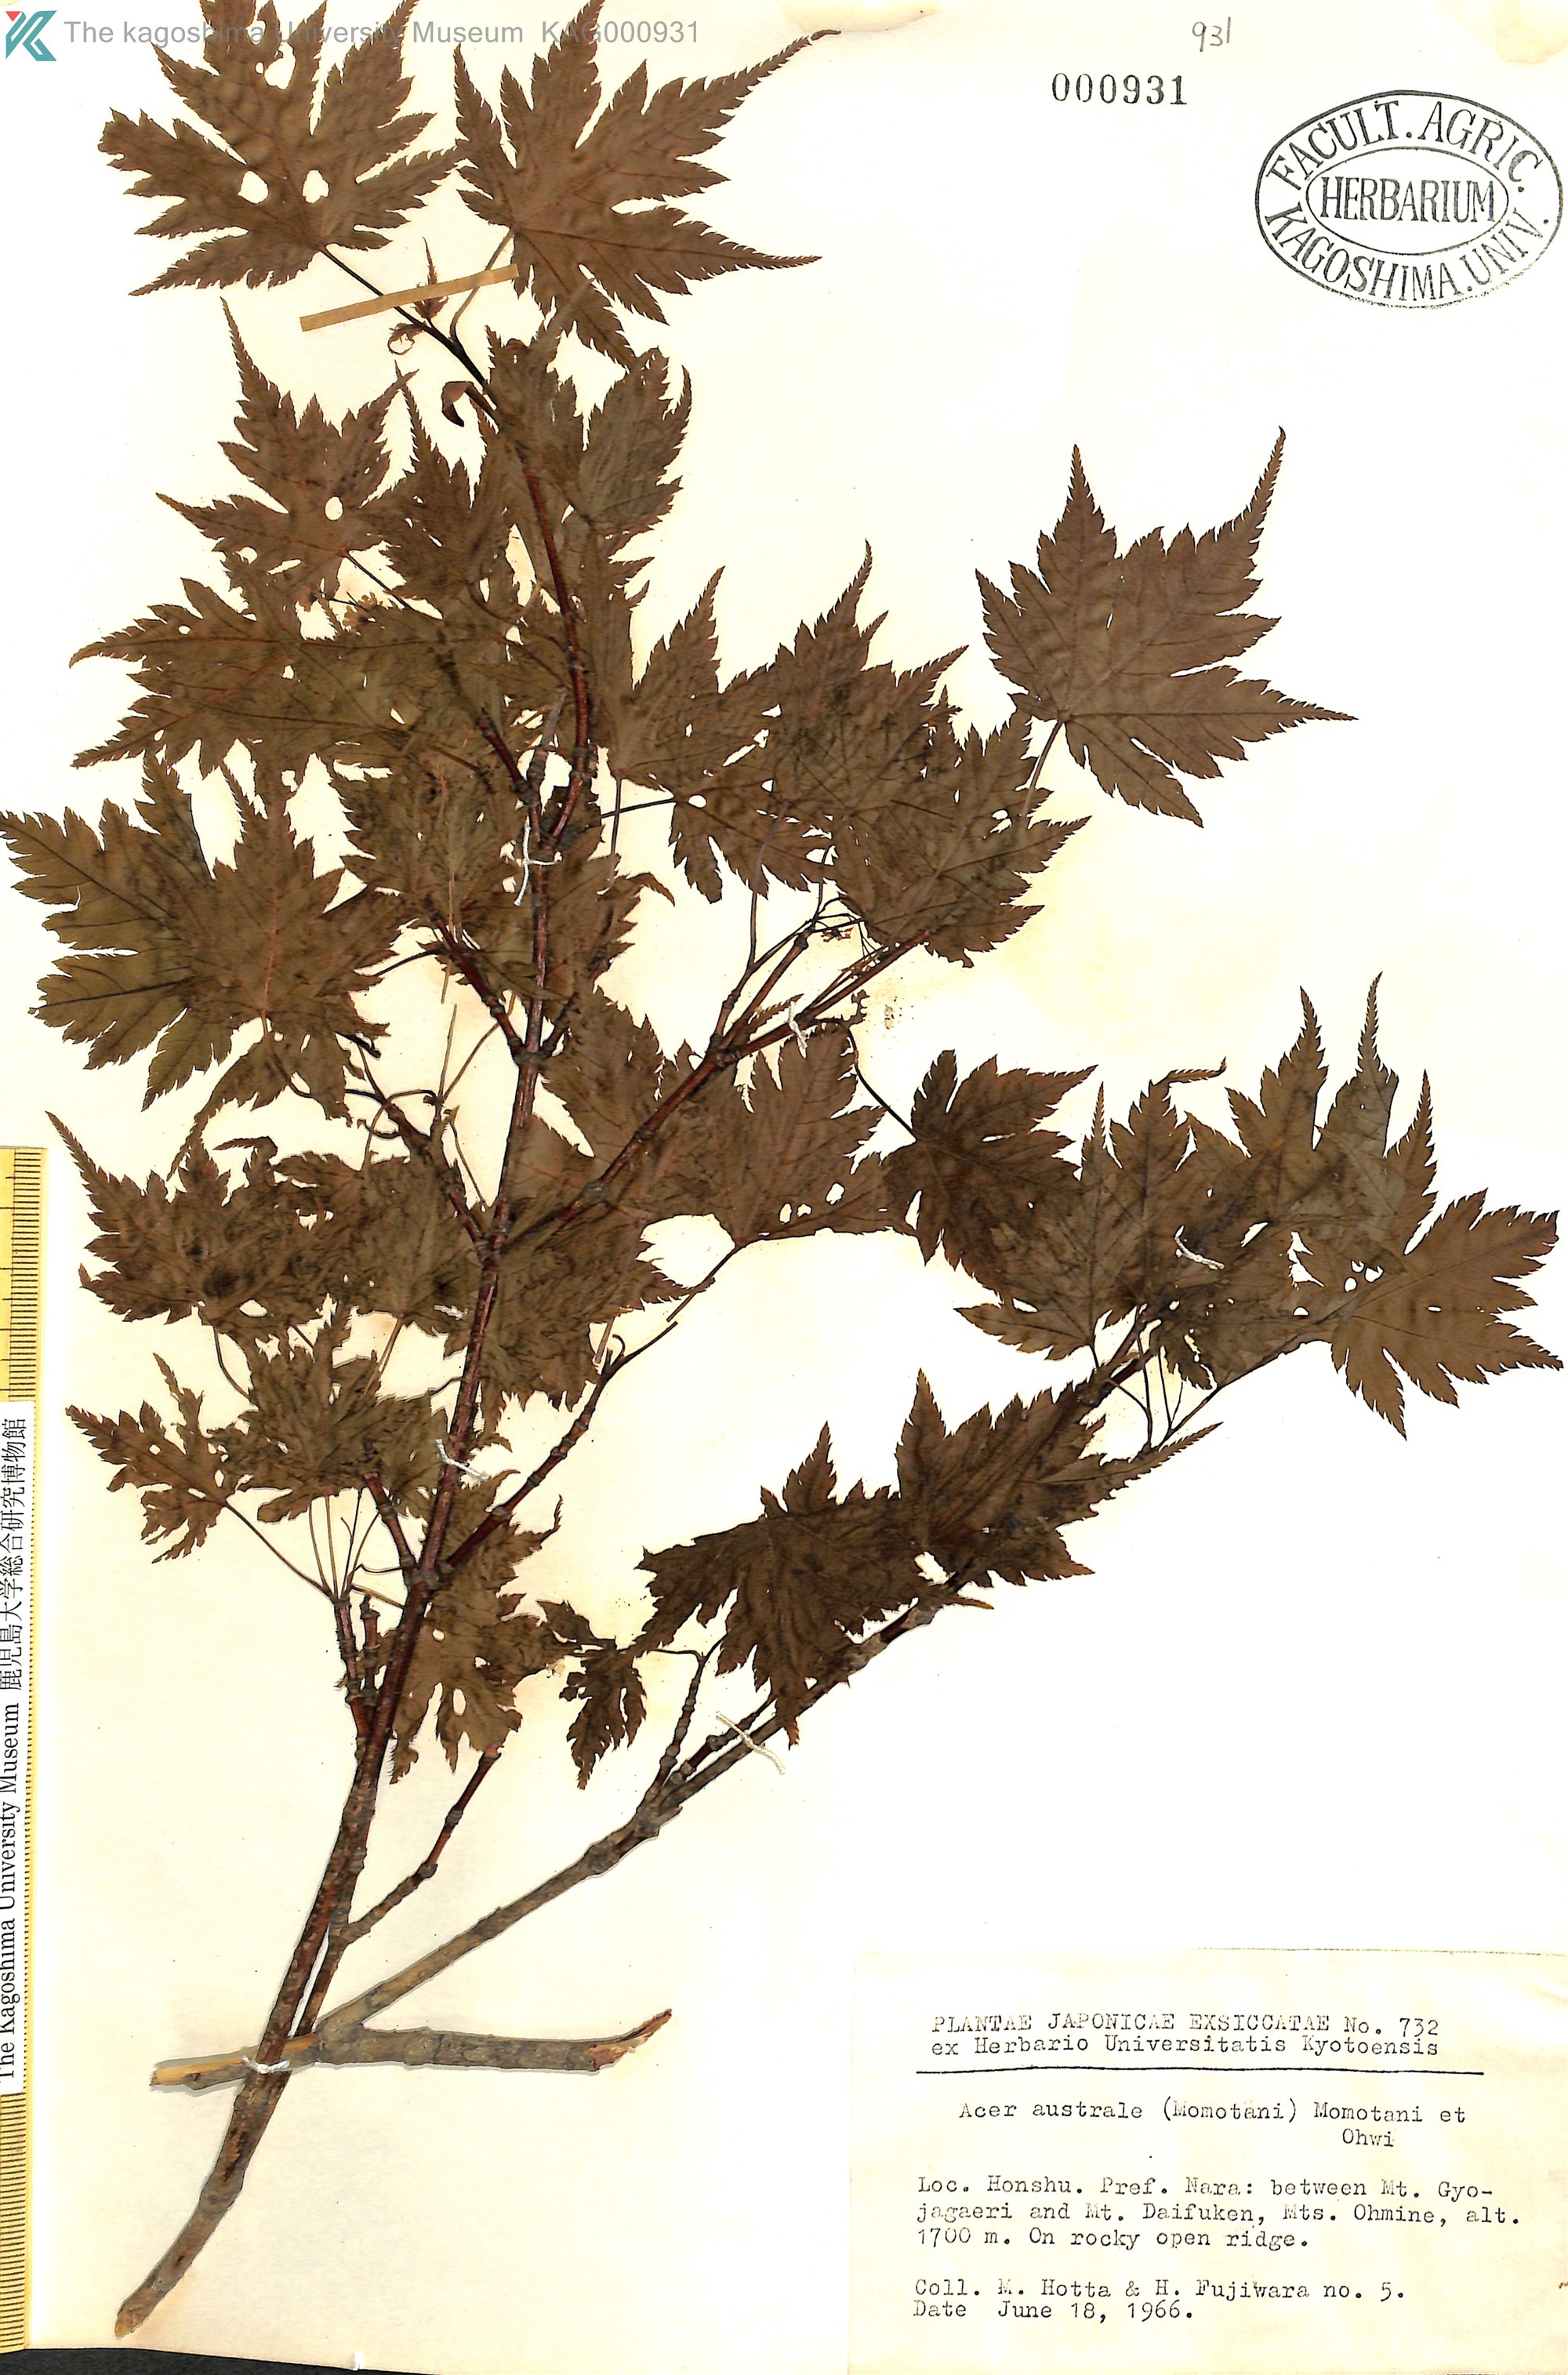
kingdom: Plantae
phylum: Tracheophyta
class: Magnoliopsida
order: Sapindales
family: Sapindaceae
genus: Acer
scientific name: Acer tschonoskii
